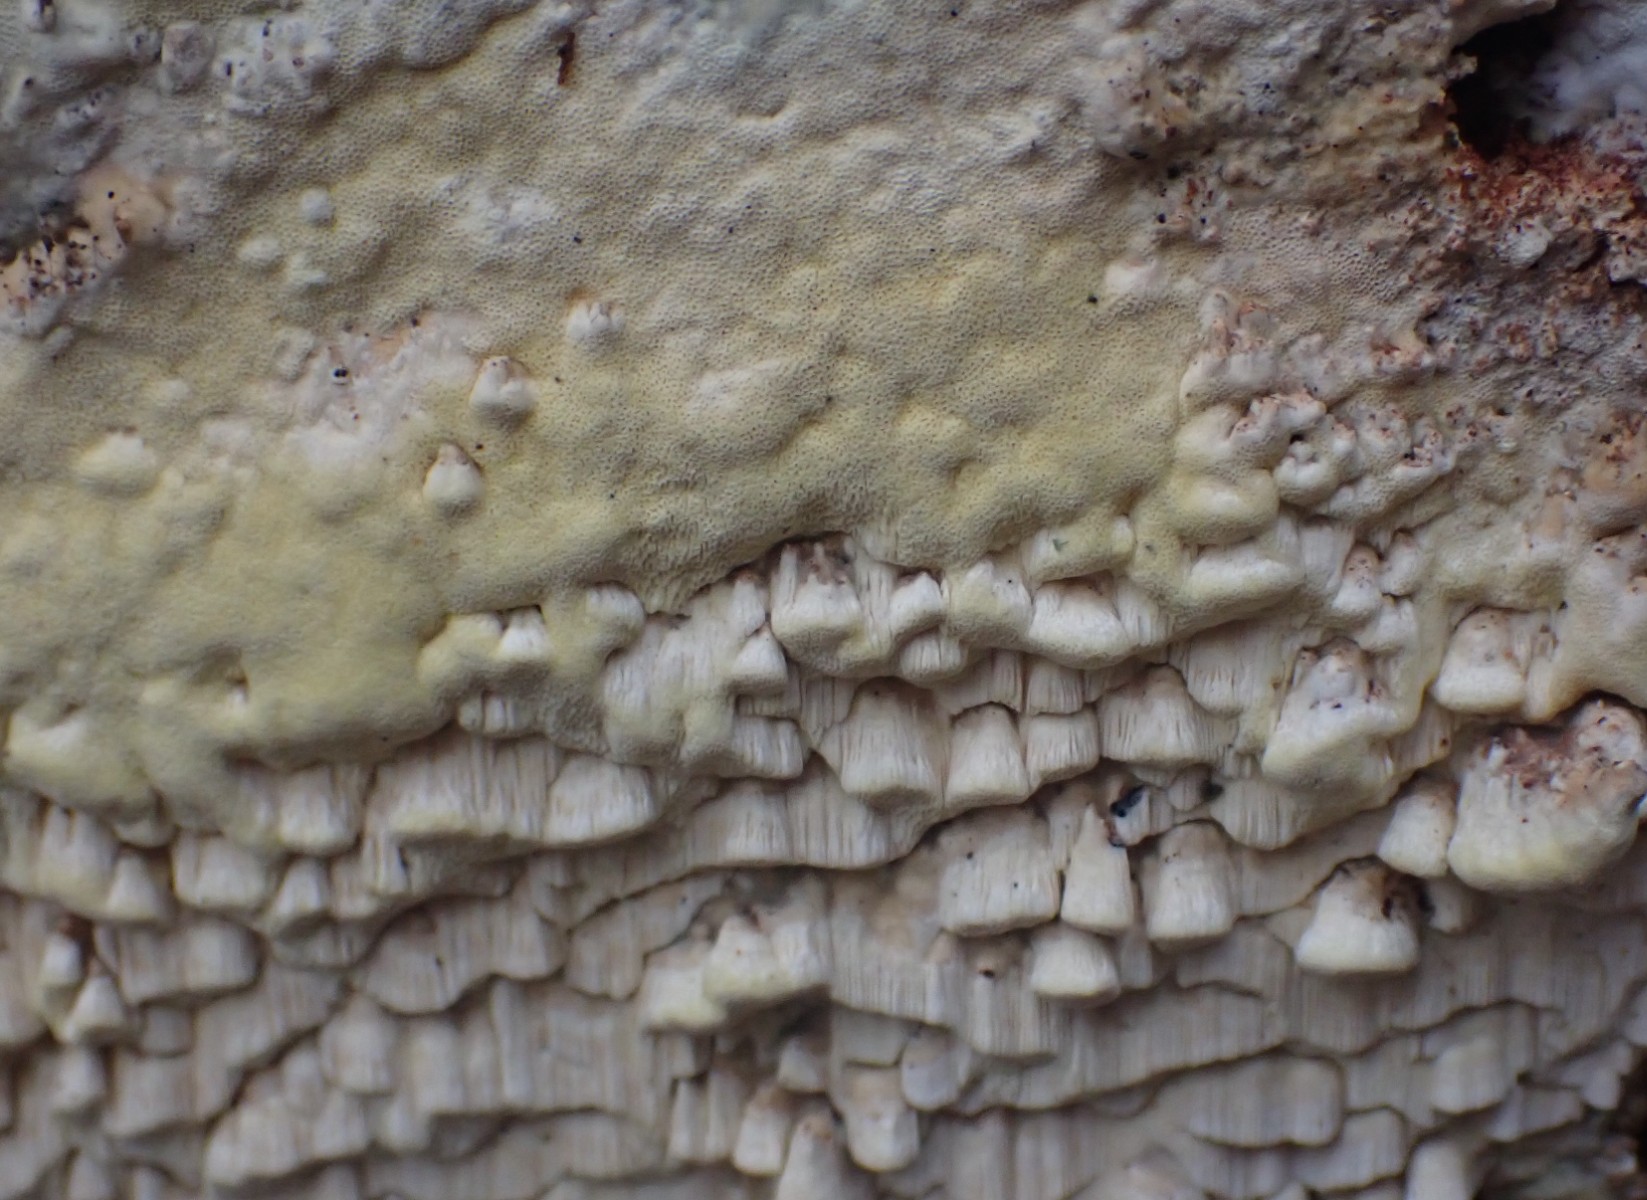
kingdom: Fungi
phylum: Basidiomycota
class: Agaricomycetes
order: Polyporales
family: Fomitopsidaceae
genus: Daedalea
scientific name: Daedalea xantha
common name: gul sejporesvamp
